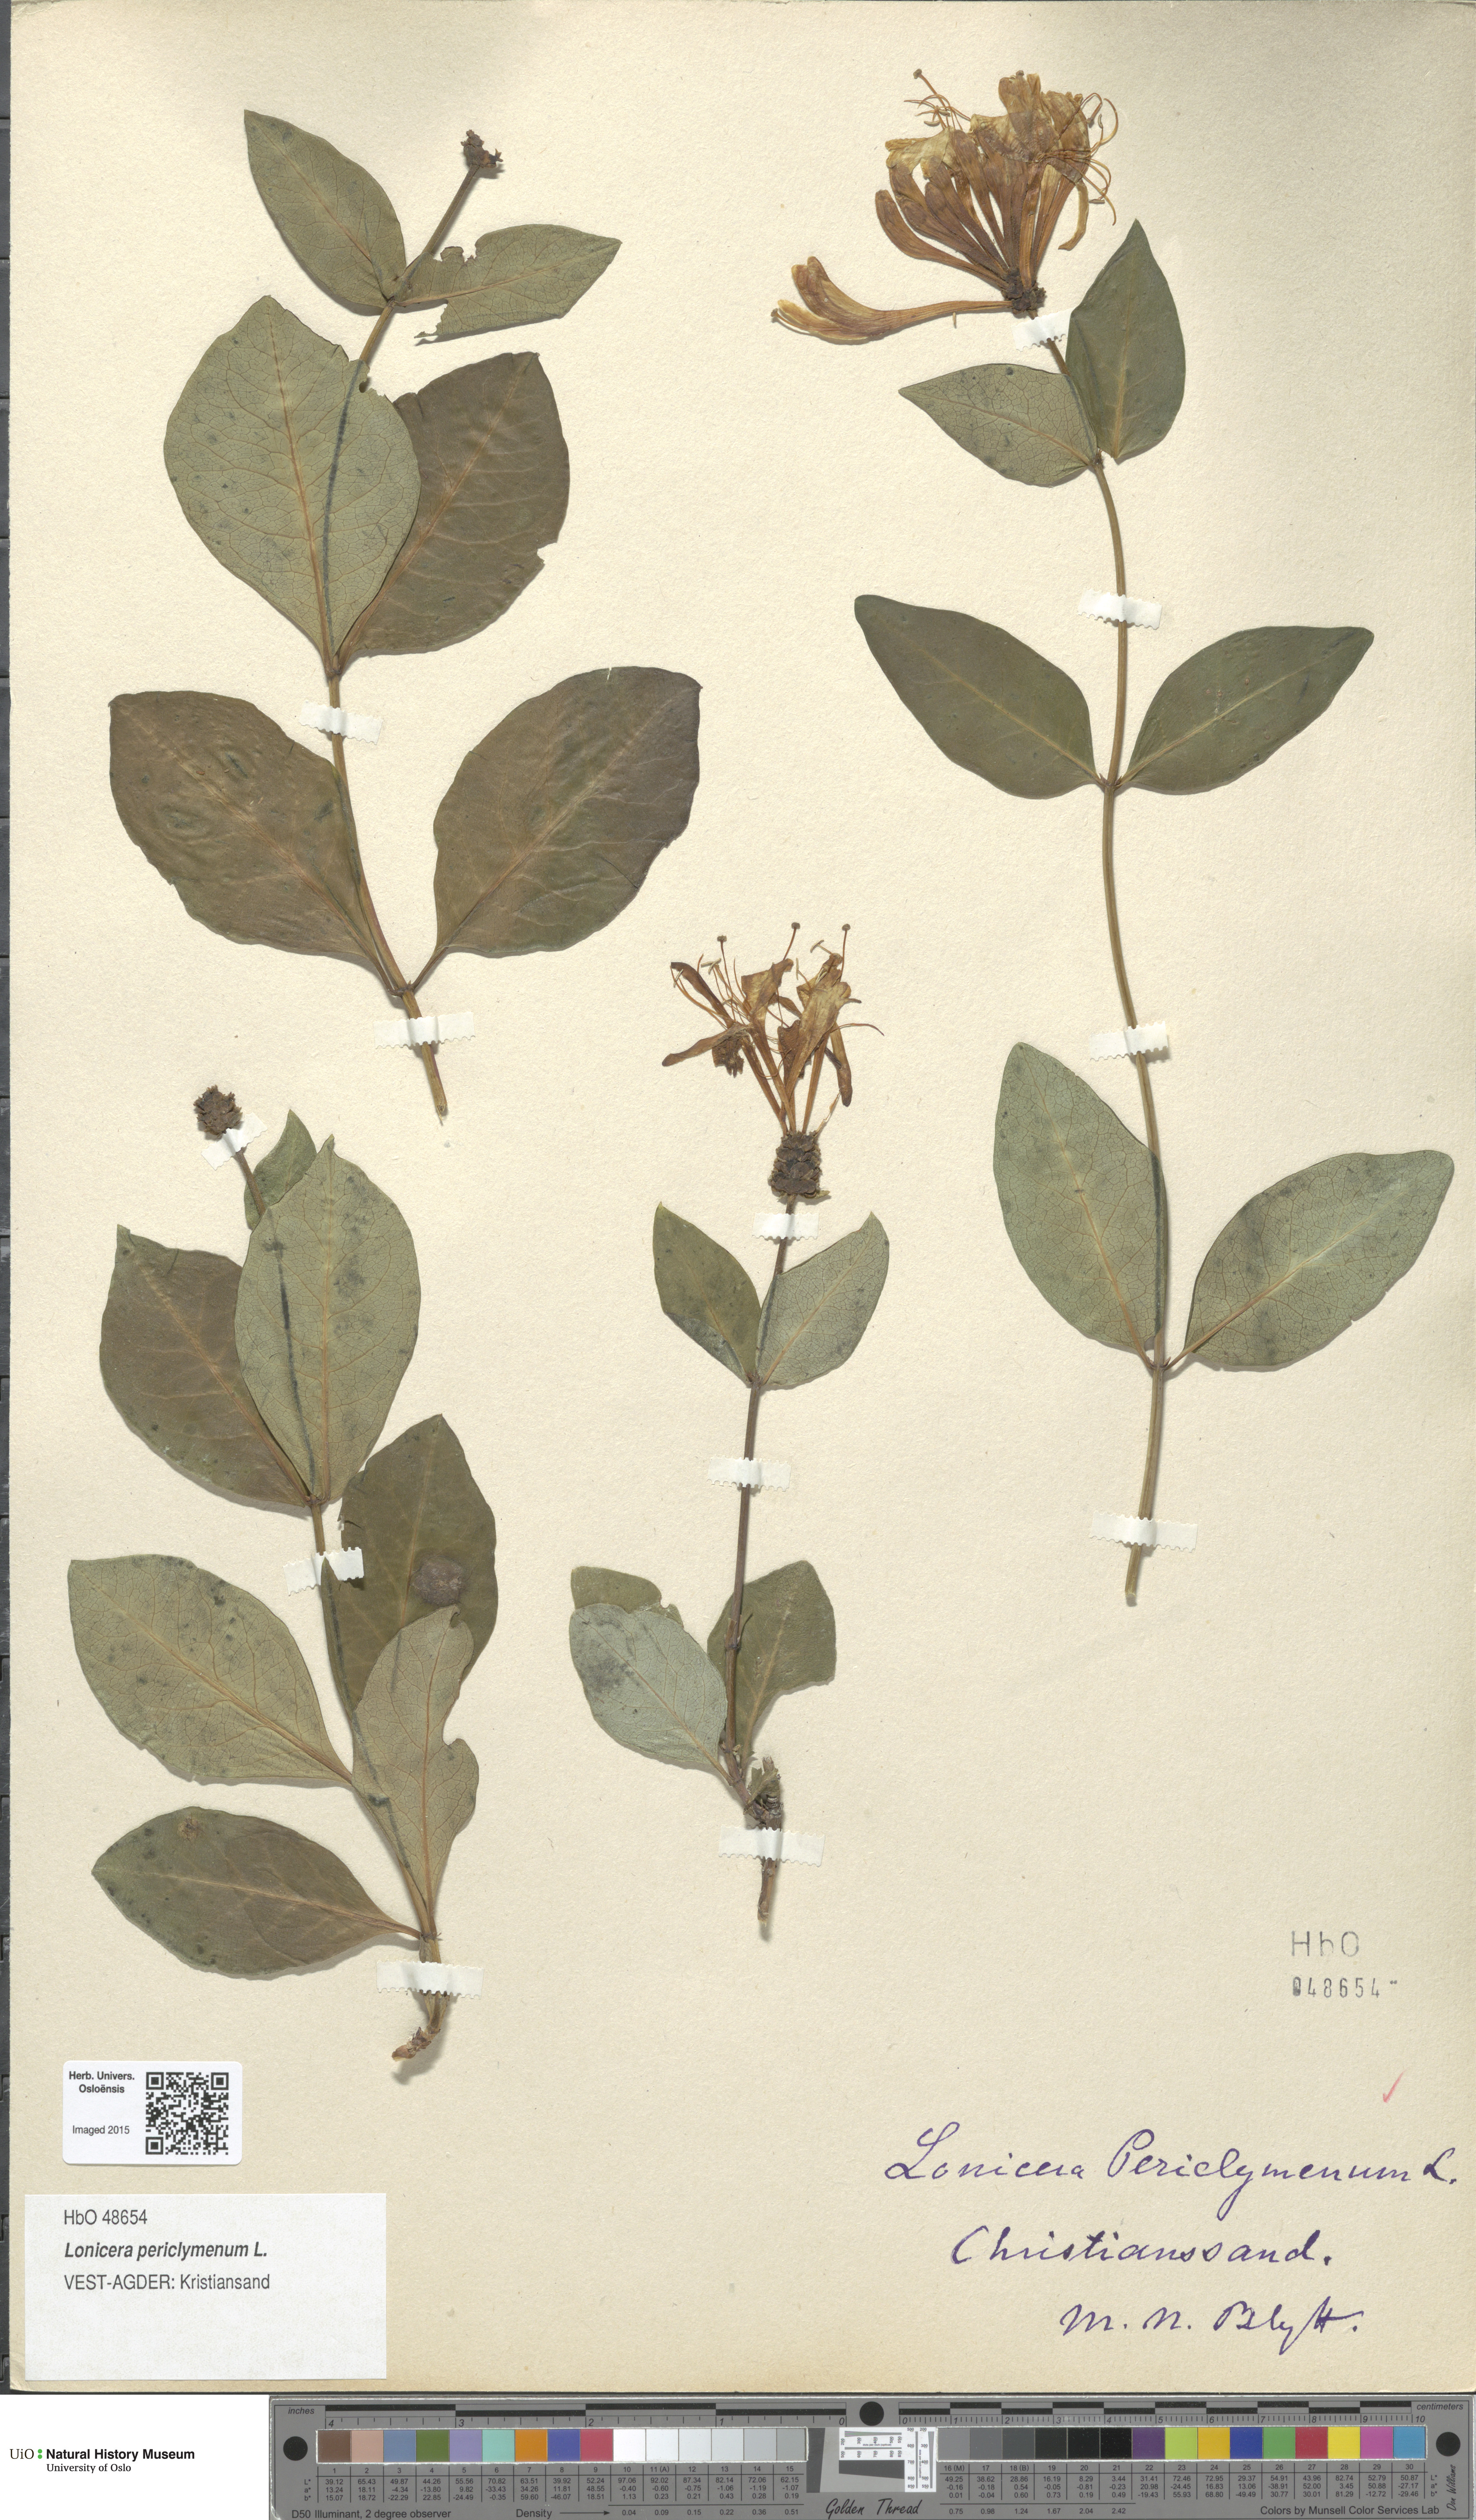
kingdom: Plantae
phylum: Tracheophyta
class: Magnoliopsida
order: Dipsacales
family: Caprifoliaceae
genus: Lonicera
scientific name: Lonicera periclymenum
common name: European honeysuckle
